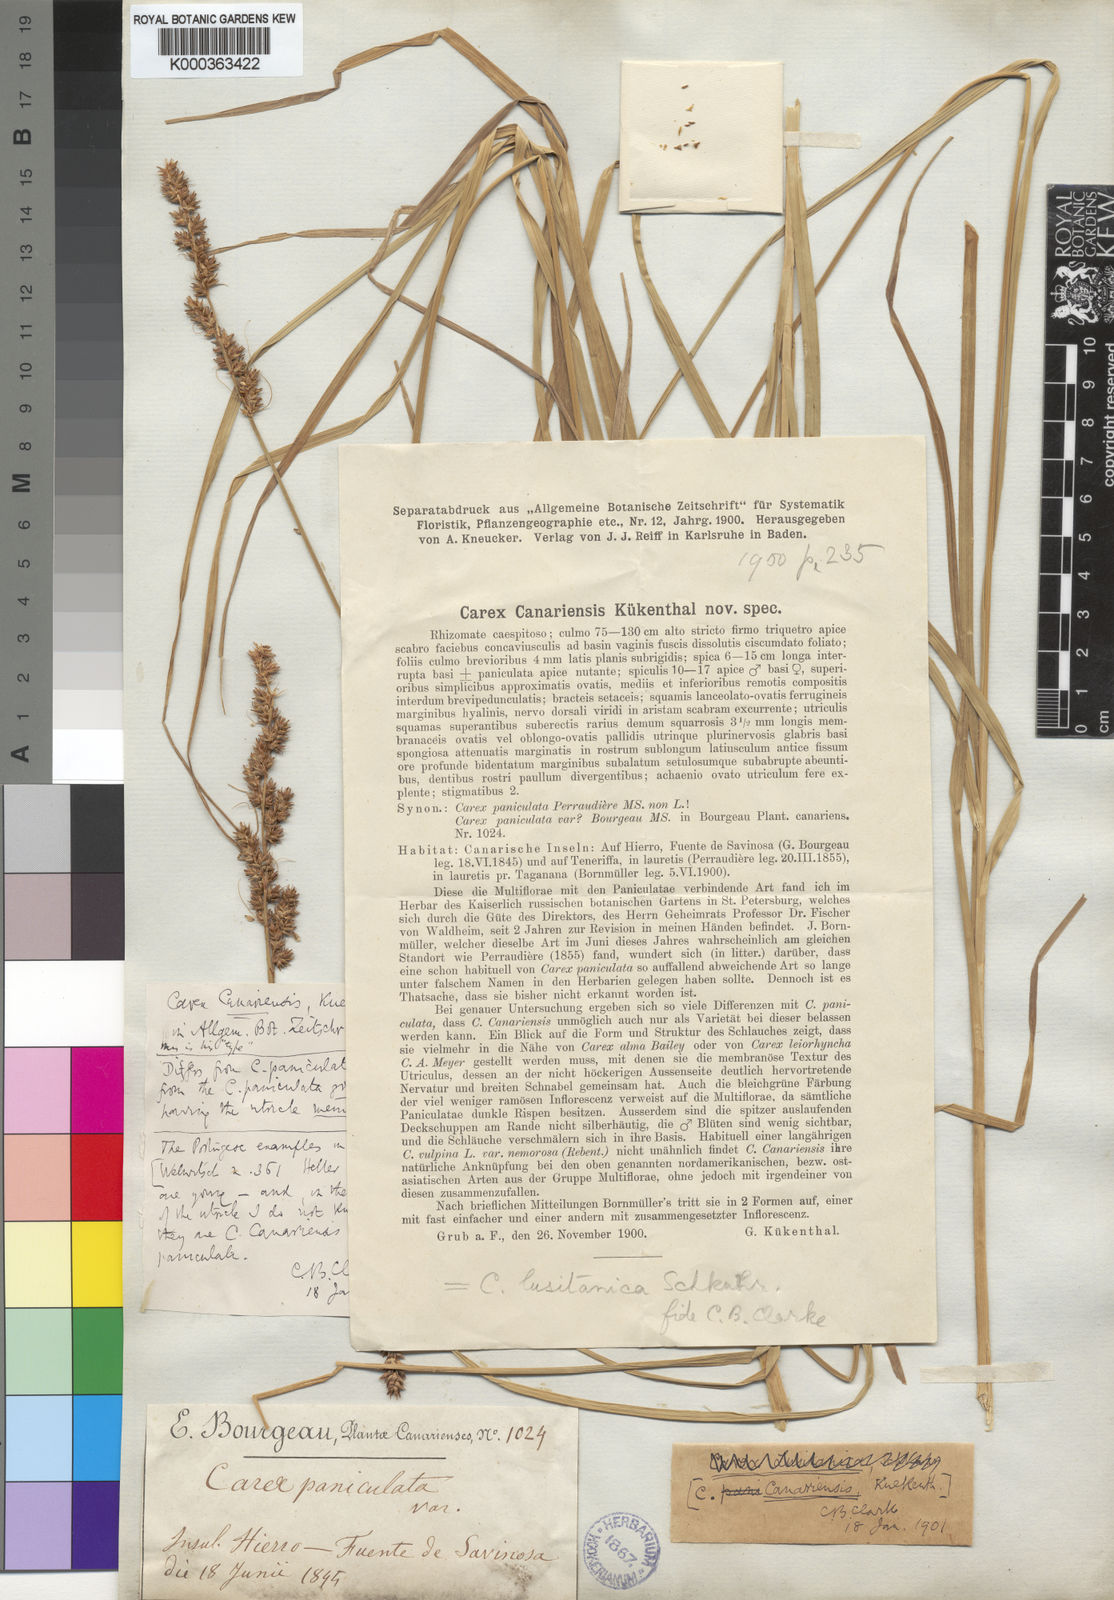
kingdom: Plantae
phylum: Tracheophyta
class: Liliopsida
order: Poales
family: Cyperaceae
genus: Carex
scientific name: Carex
